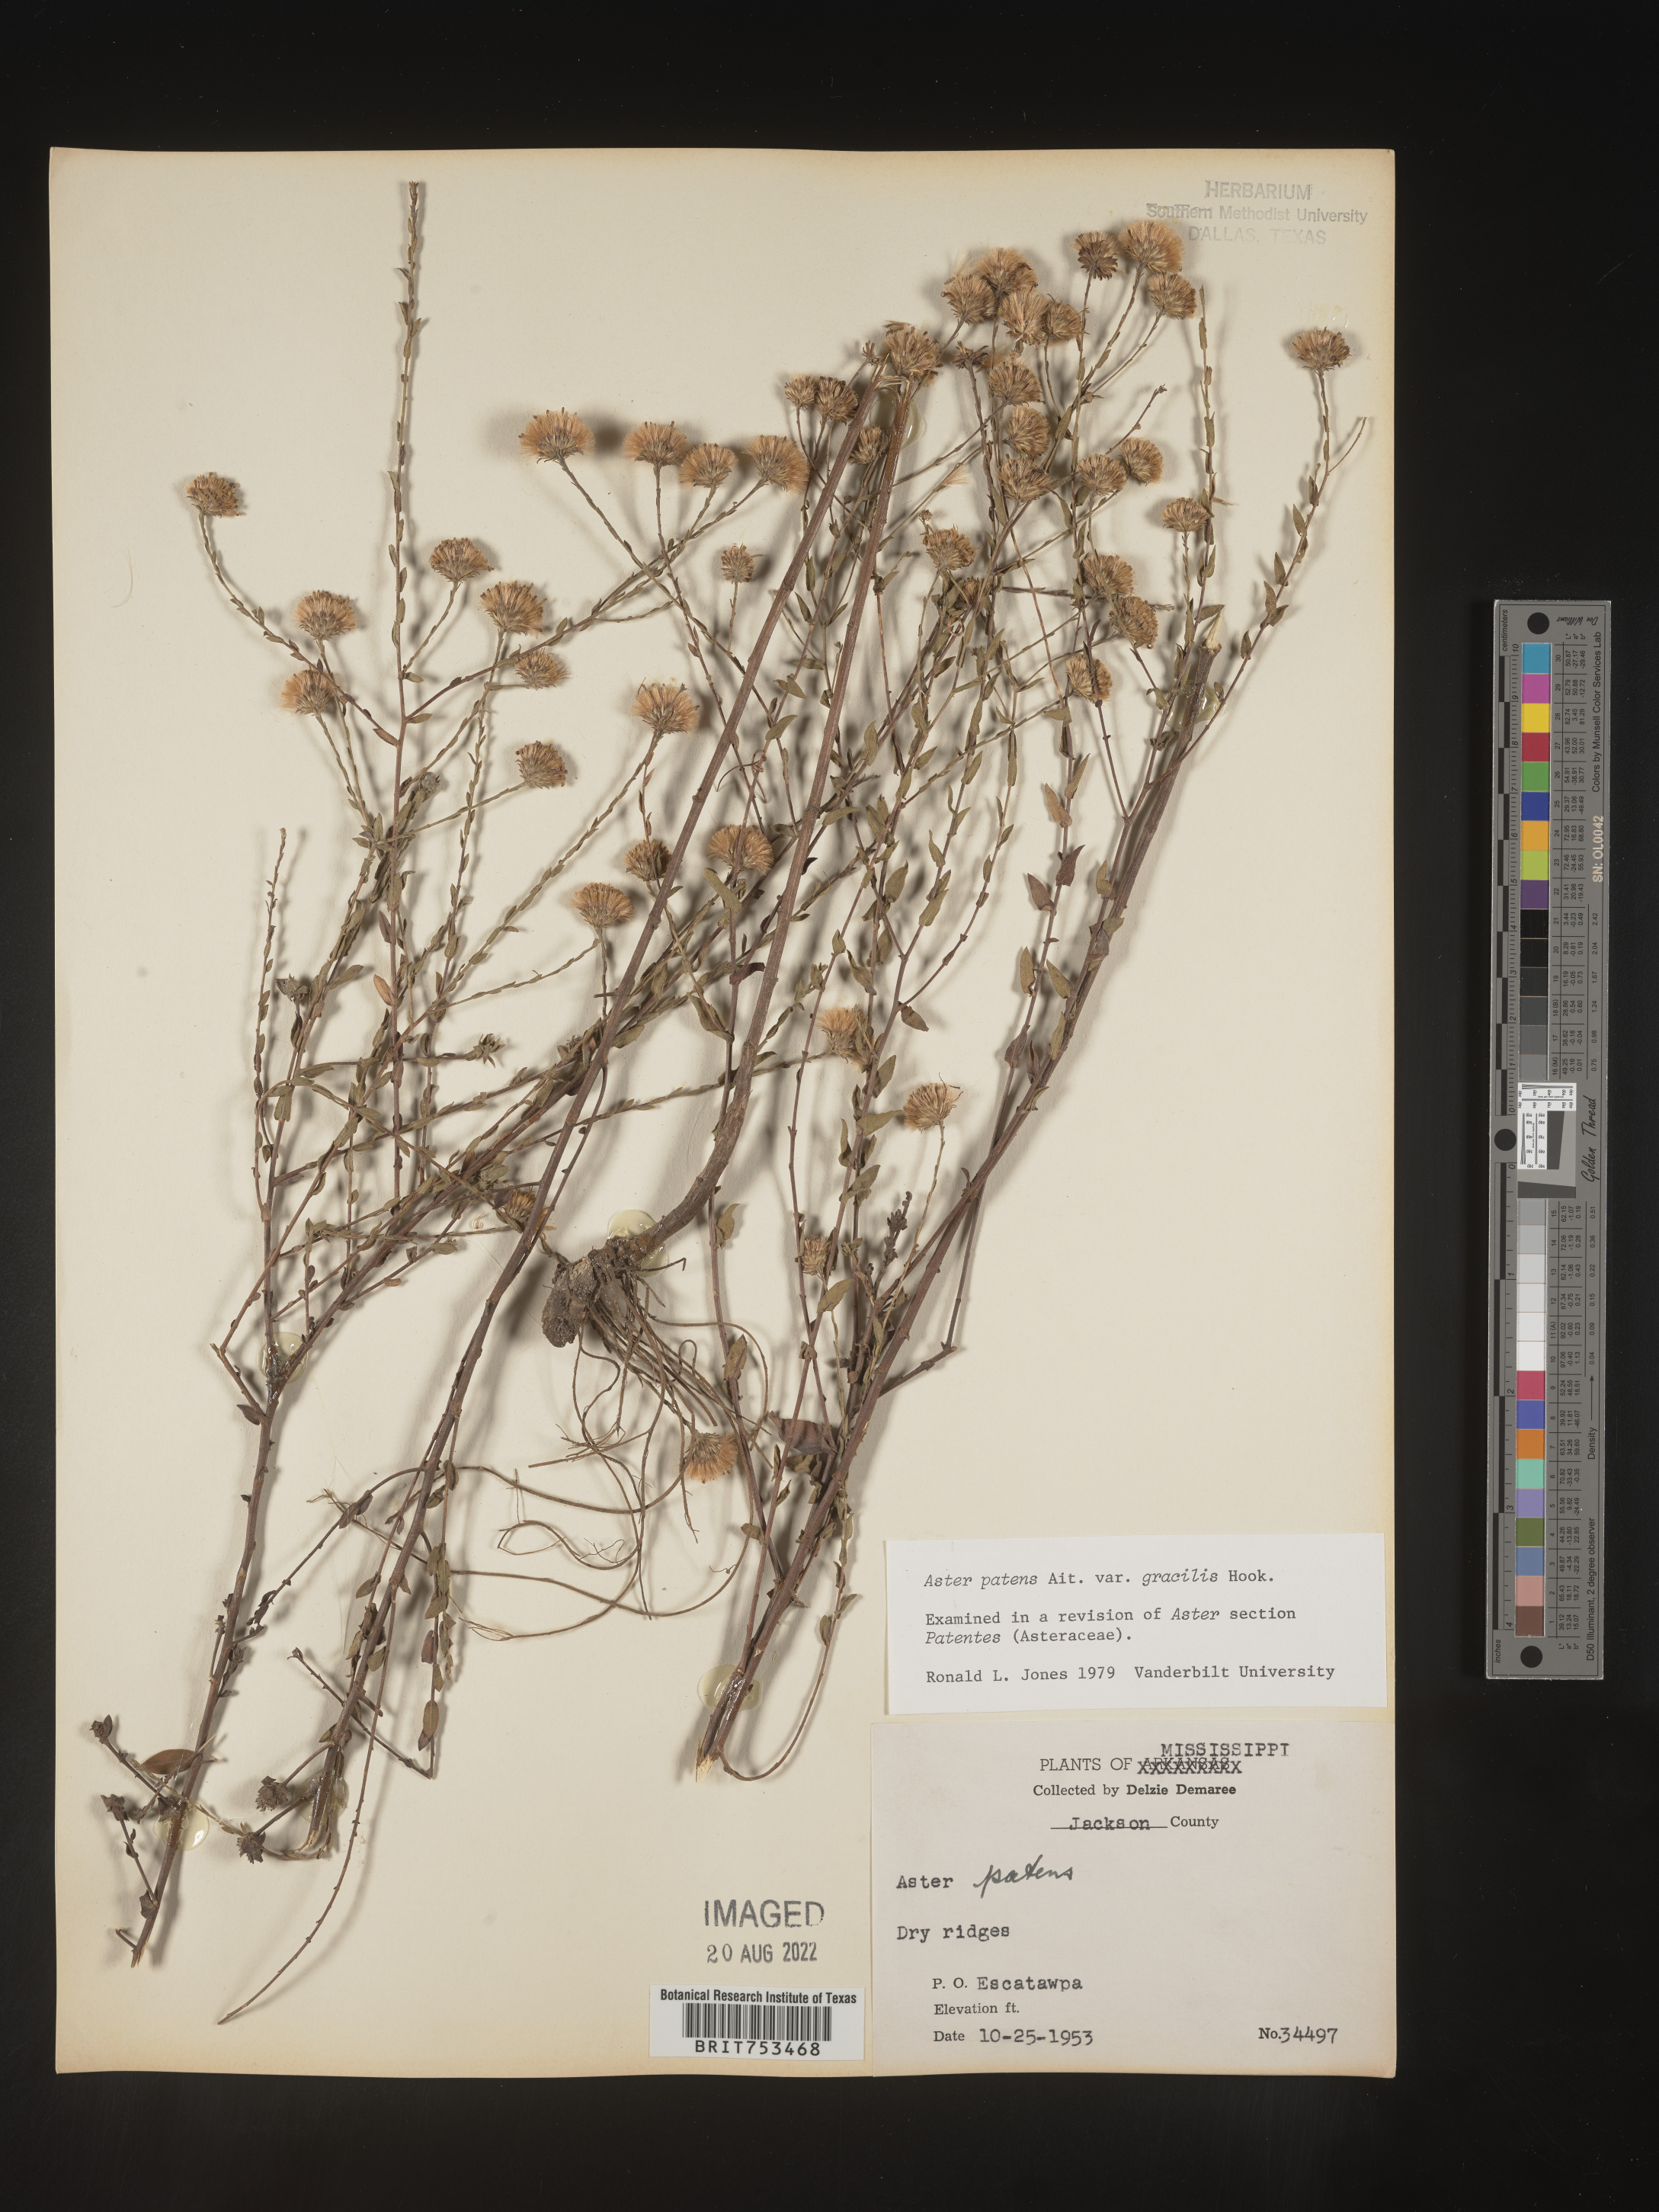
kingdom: Plantae
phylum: Tracheophyta
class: Magnoliopsida
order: Asterales
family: Asteraceae
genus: Symphyotrichum
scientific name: Symphyotrichum patens
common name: Late purple aster
